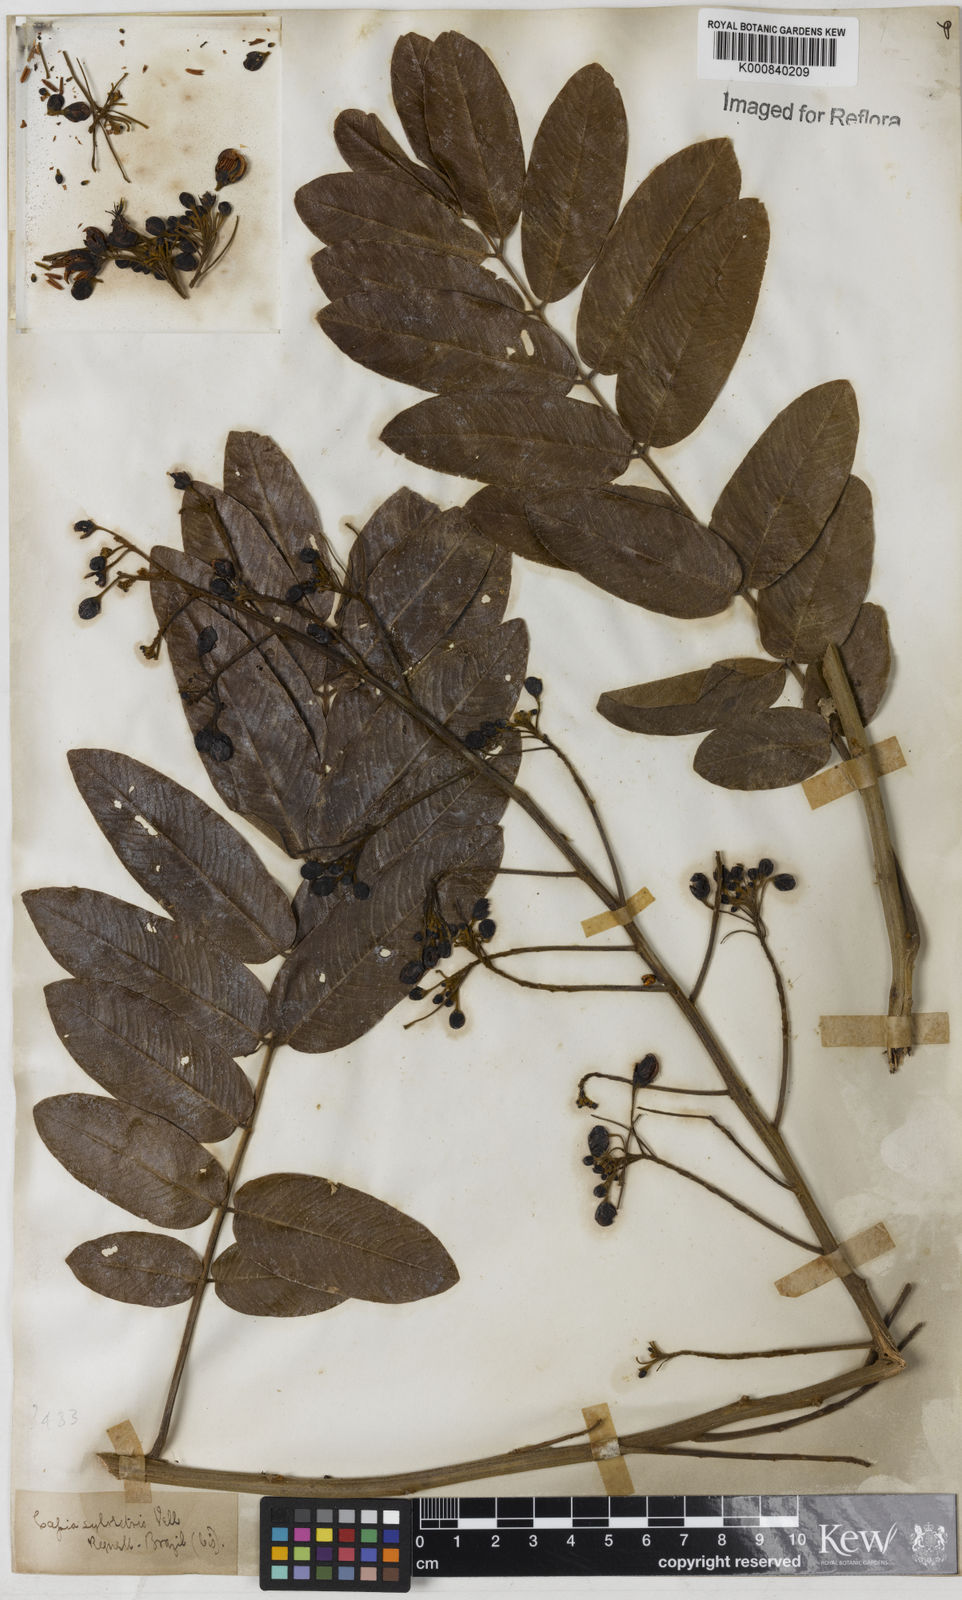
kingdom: Plantae
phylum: Tracheophyta
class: Magnoliopsida
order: Fabales
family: Fabaceae
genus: Senna
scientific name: Senna silvestris
